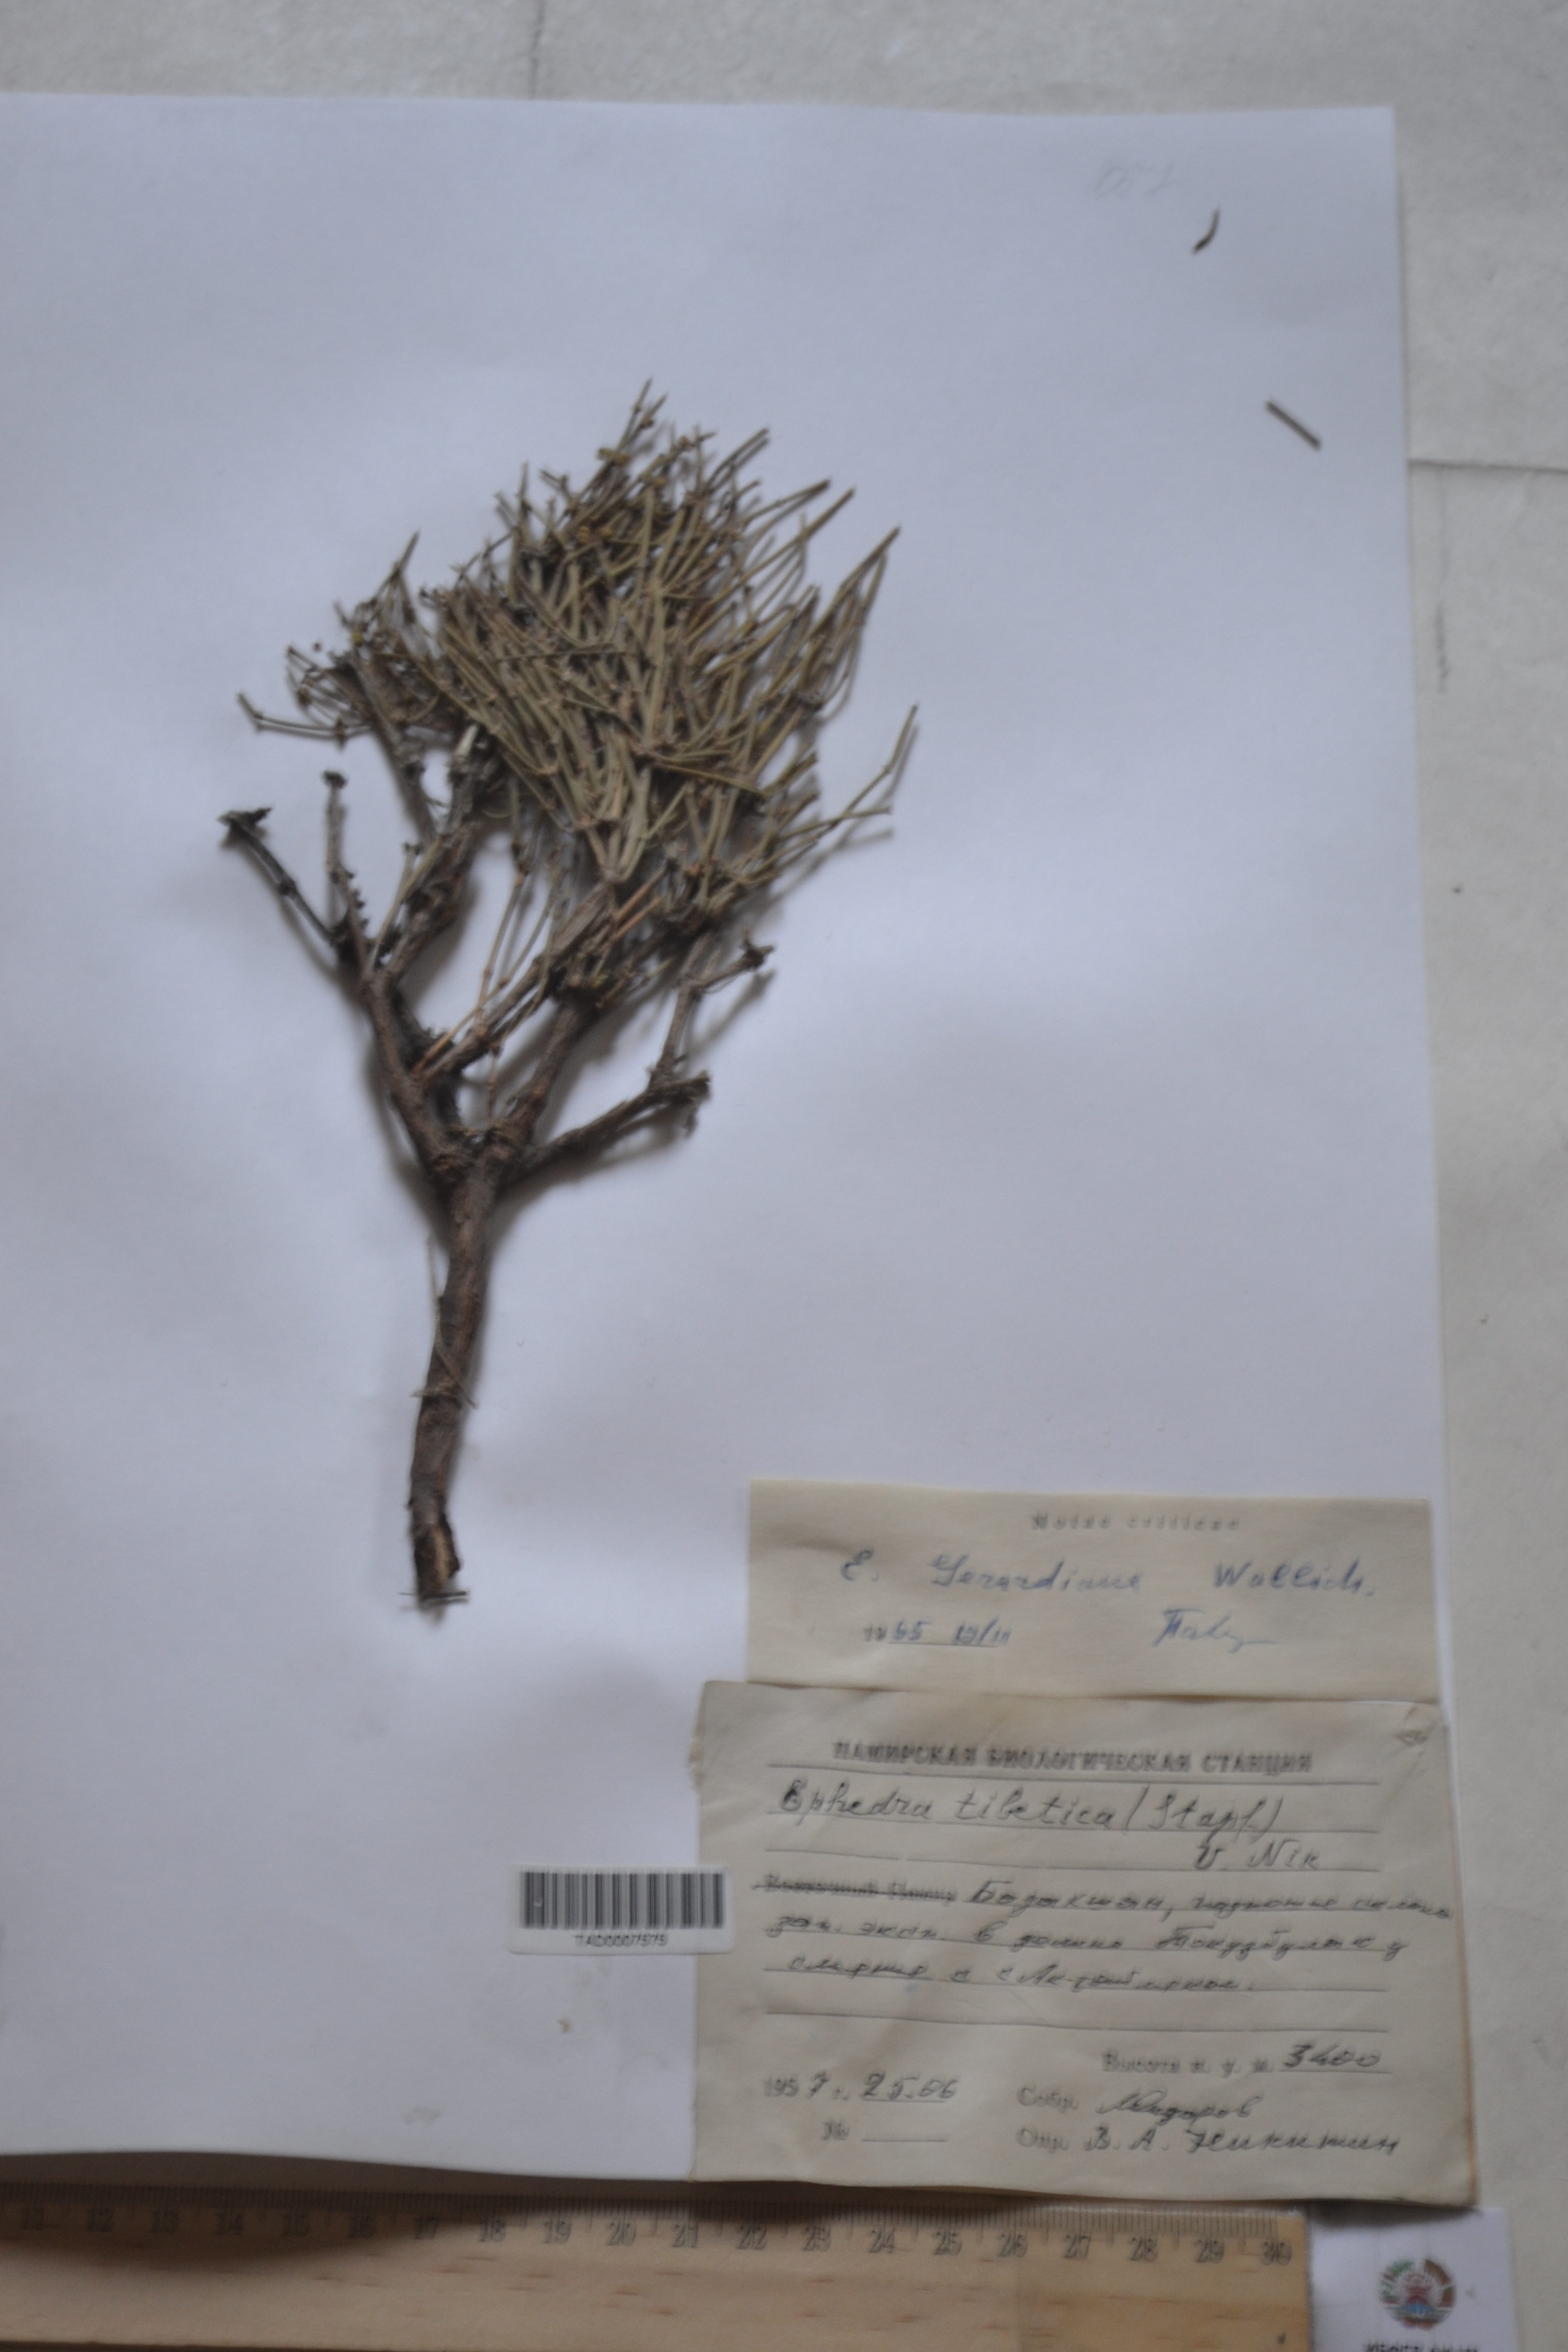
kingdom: Plantae
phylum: Tracheophyta
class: Gnetopsida
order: Ephedrales
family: Ephedraceae
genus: Ephedra
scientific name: Ephedra gerardiana
